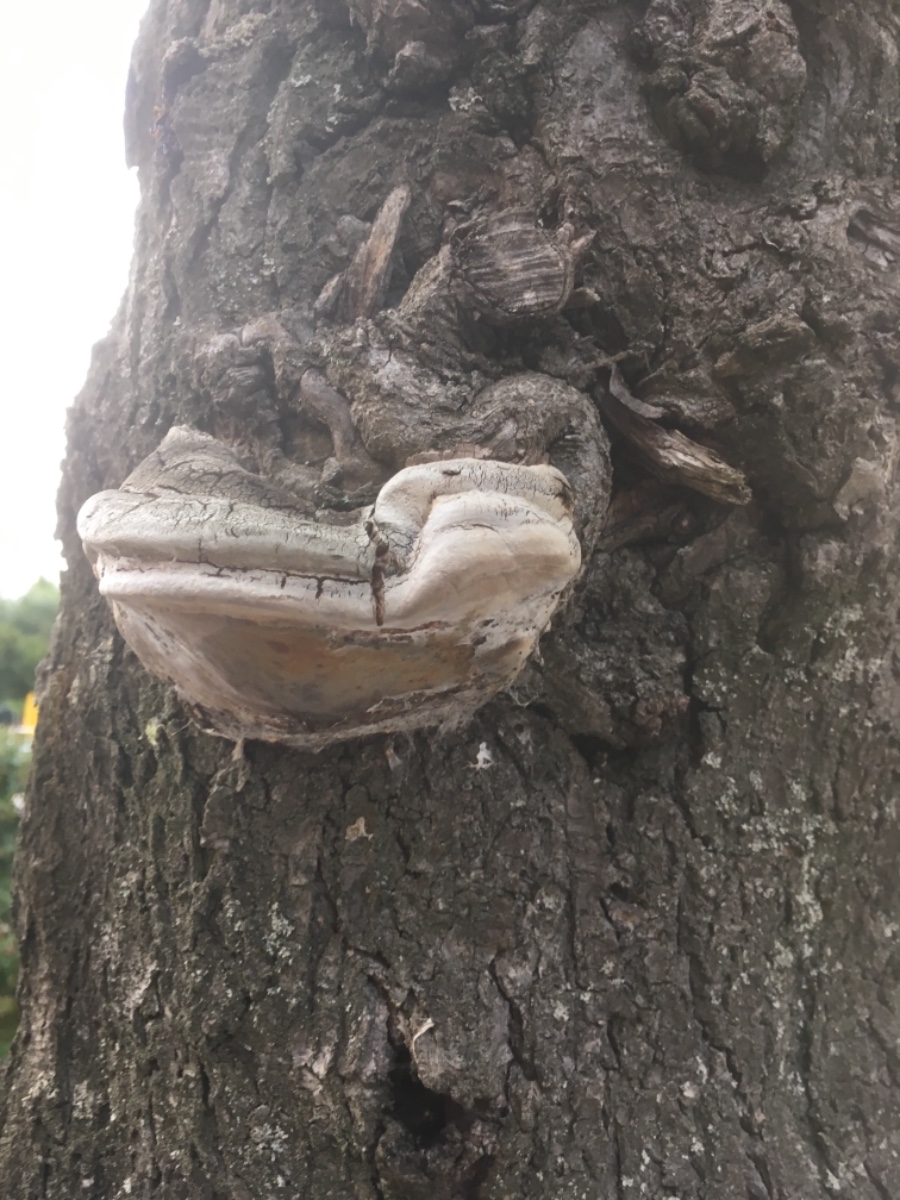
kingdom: Fungi
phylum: Basidiomycota
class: Agaricomycetes
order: Hymenochaetales
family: Hymenochaetaceae
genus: Phellinus
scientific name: Phellinus pomaceus
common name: blomme-ildporesvamp
